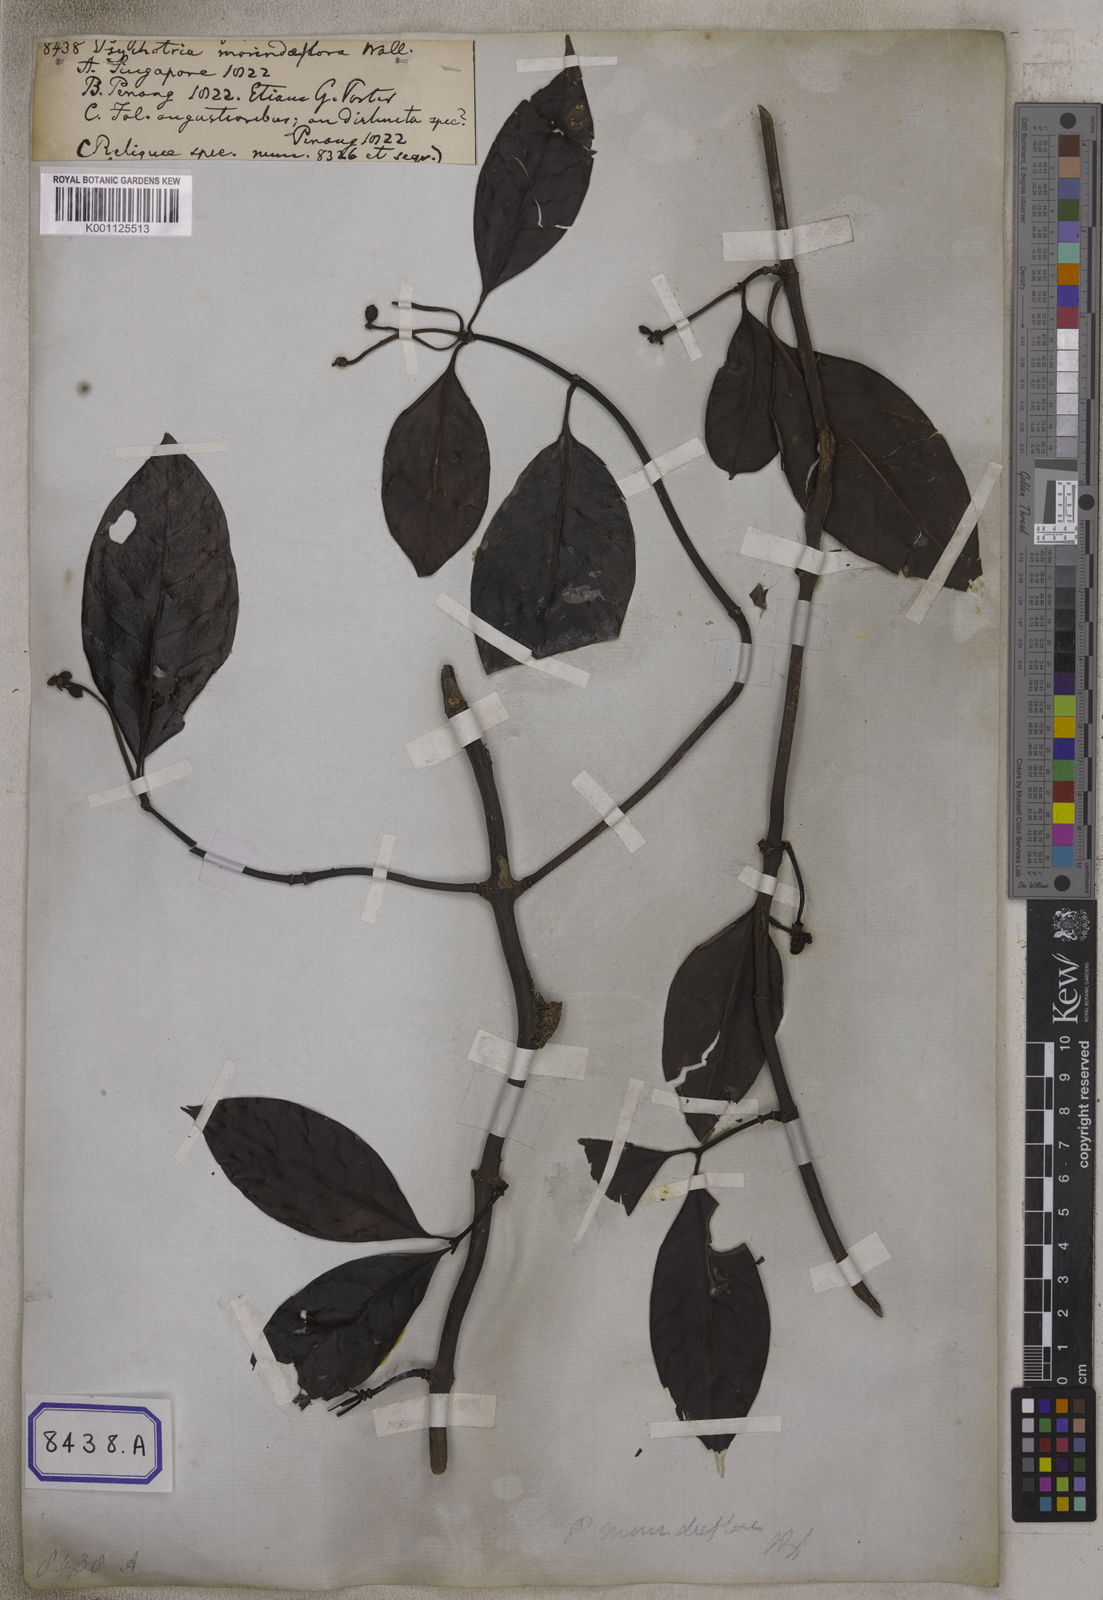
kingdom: Plantae
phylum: Tracheophyta
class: Magnoliopsida
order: Gentianales
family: Rubiaceae
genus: Psychotria
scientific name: Psychotria
